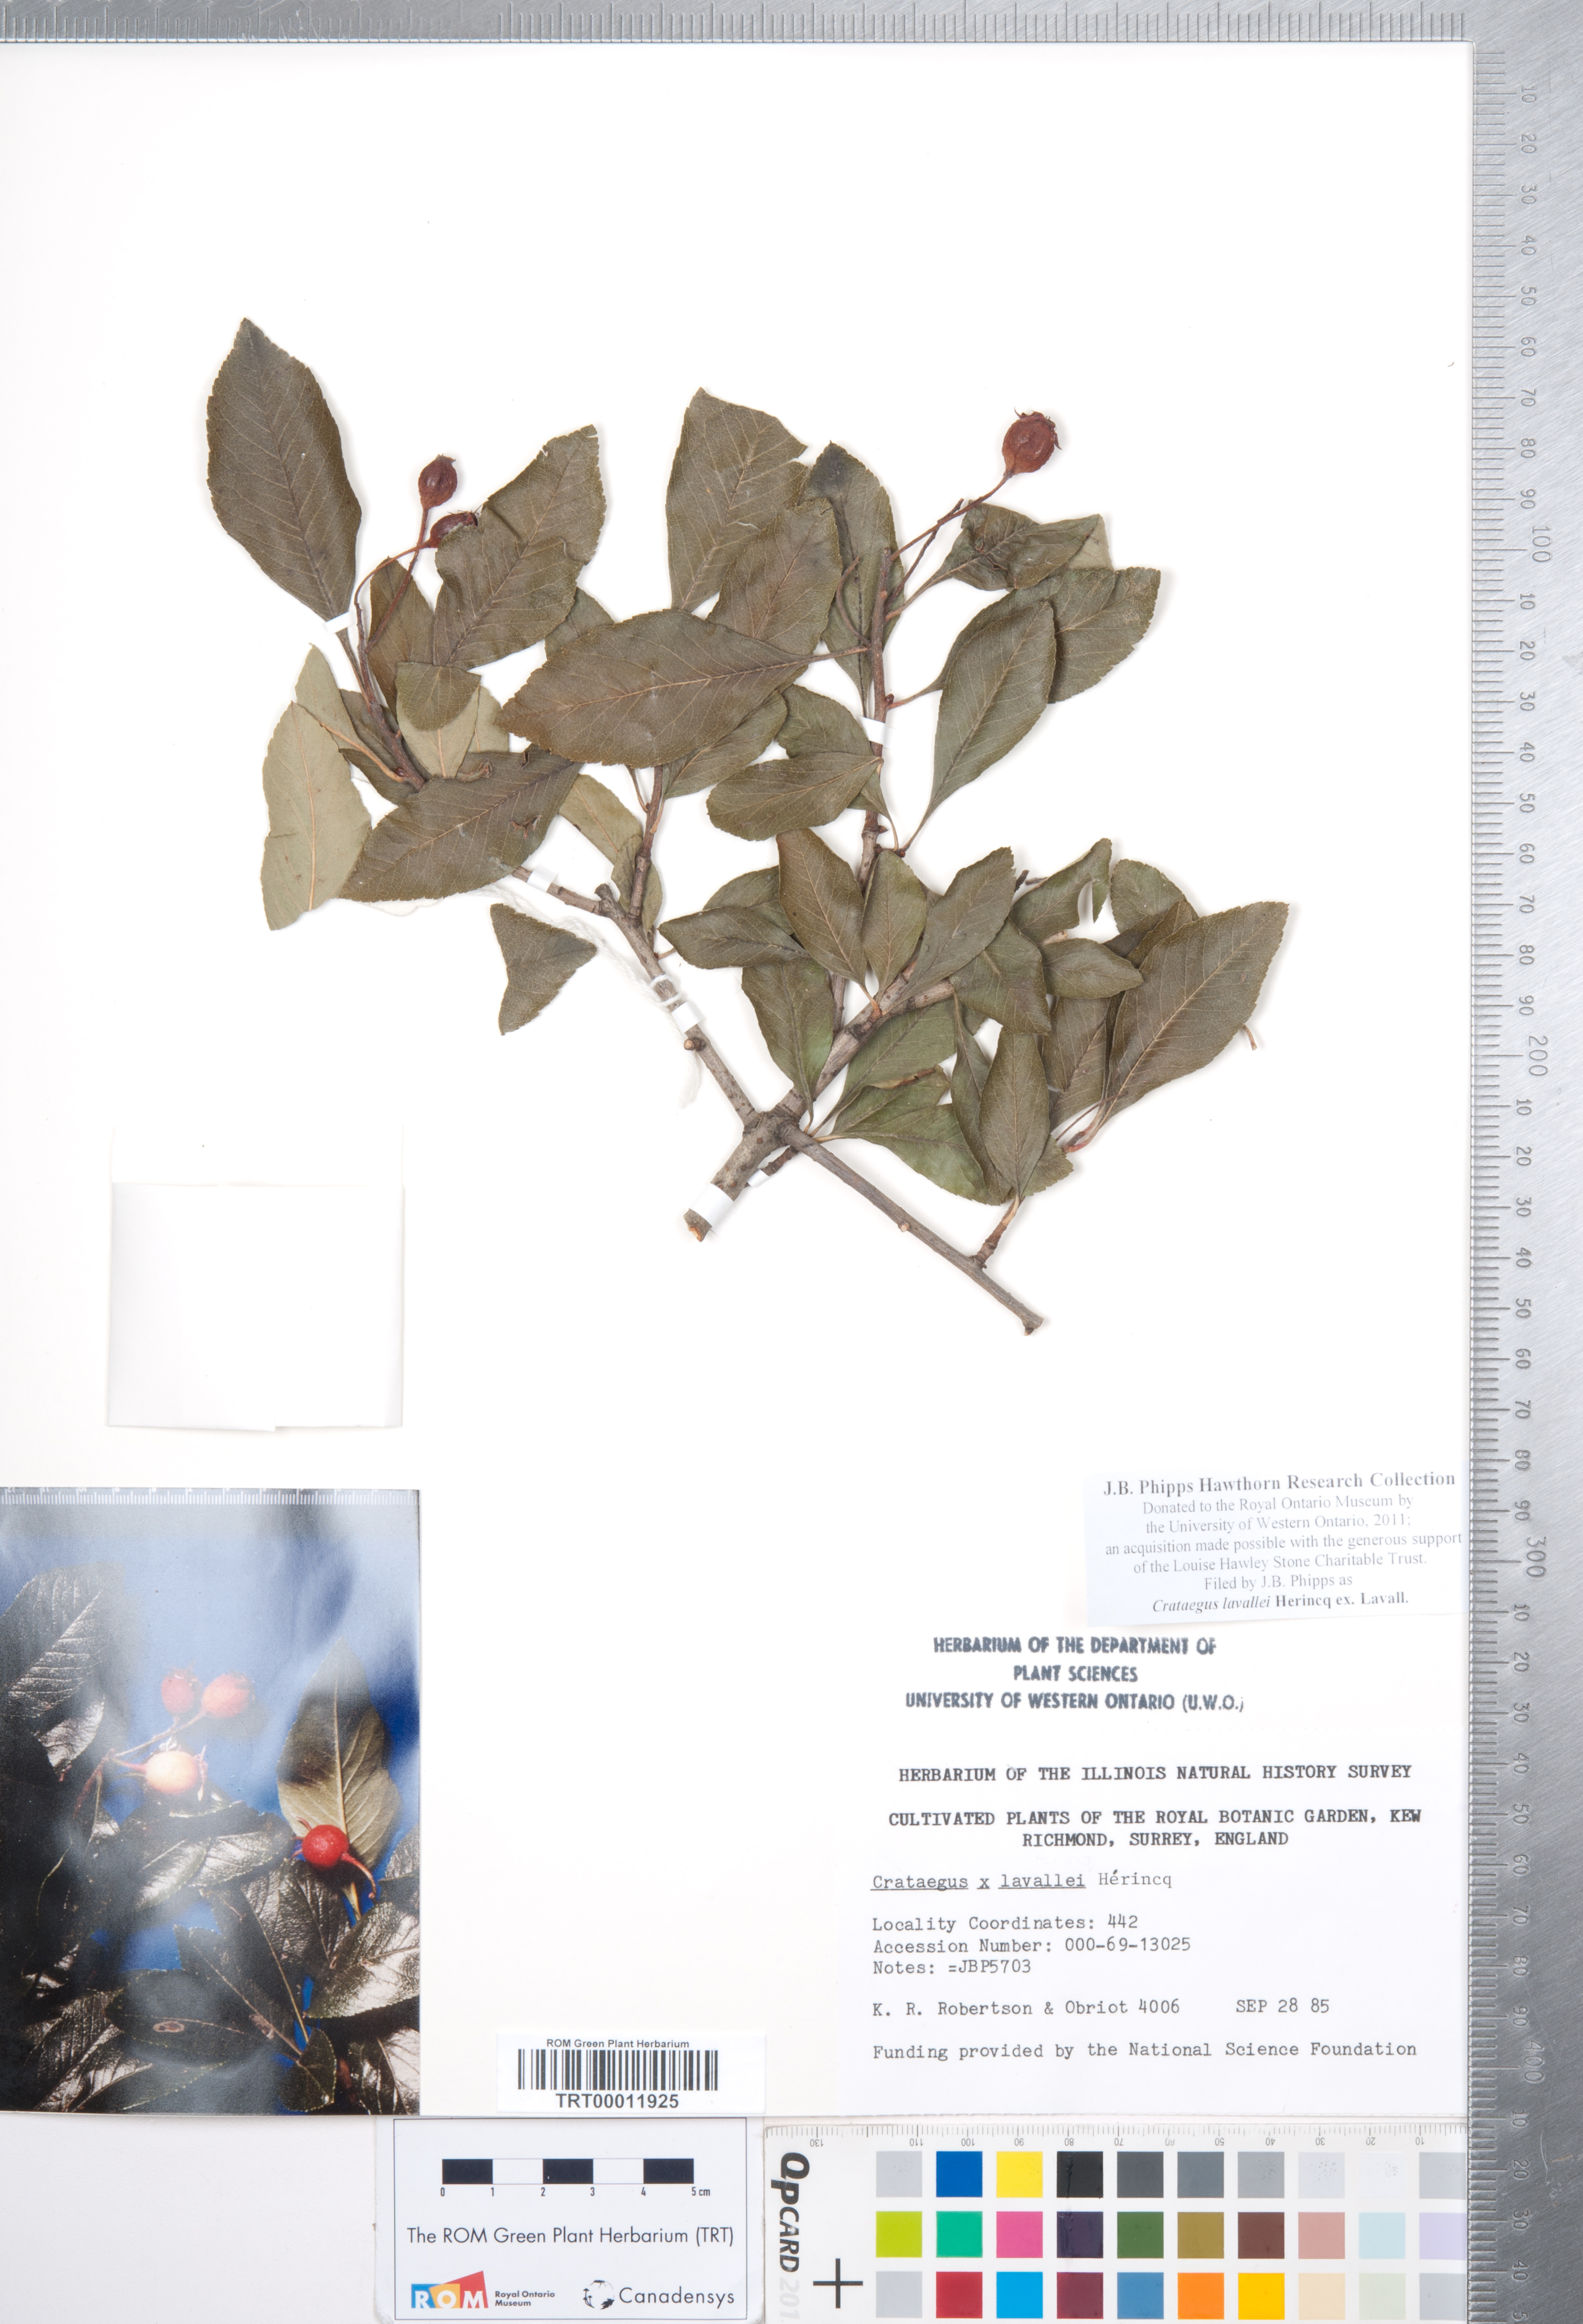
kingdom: Plantae
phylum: Tracheophyta
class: Magnoliopsida
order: Rosales
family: Rosaceae
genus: Crataegus
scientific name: Crataegus lavallei
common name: Lavell hawthorn
